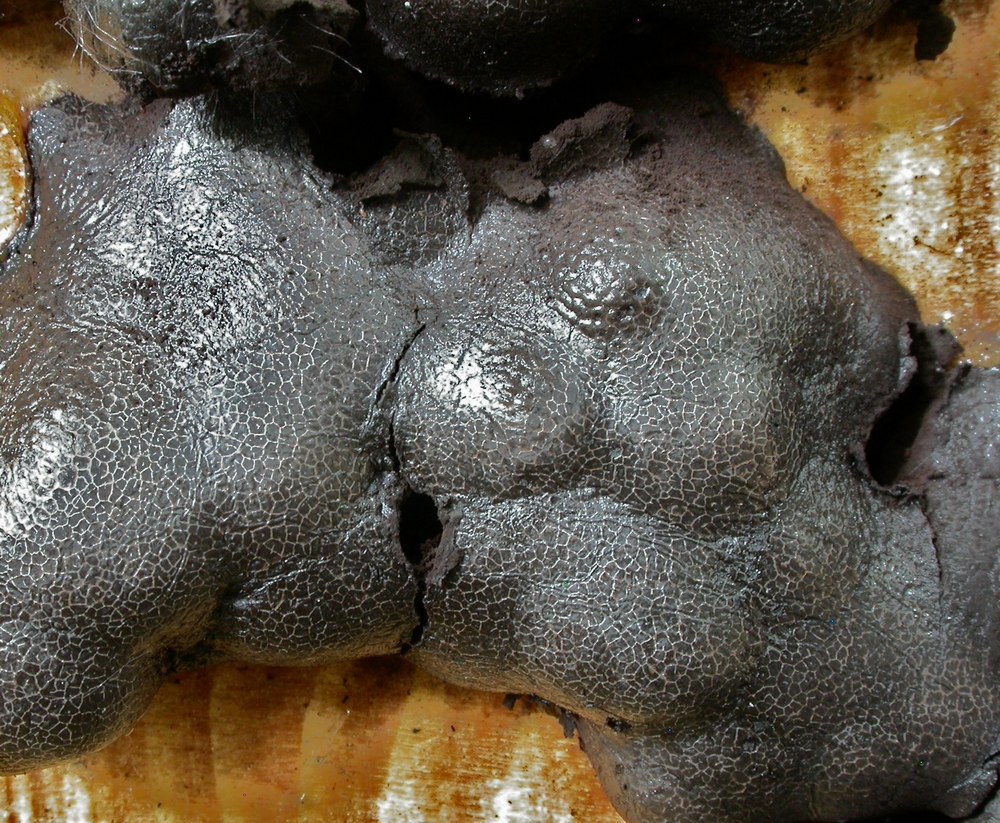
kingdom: Protozoa
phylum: Mycetozoa
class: Myxomycetes
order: Stemonitidales
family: Stemonitidaceae
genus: Amaurochaete
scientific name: Amaurochaete atra
